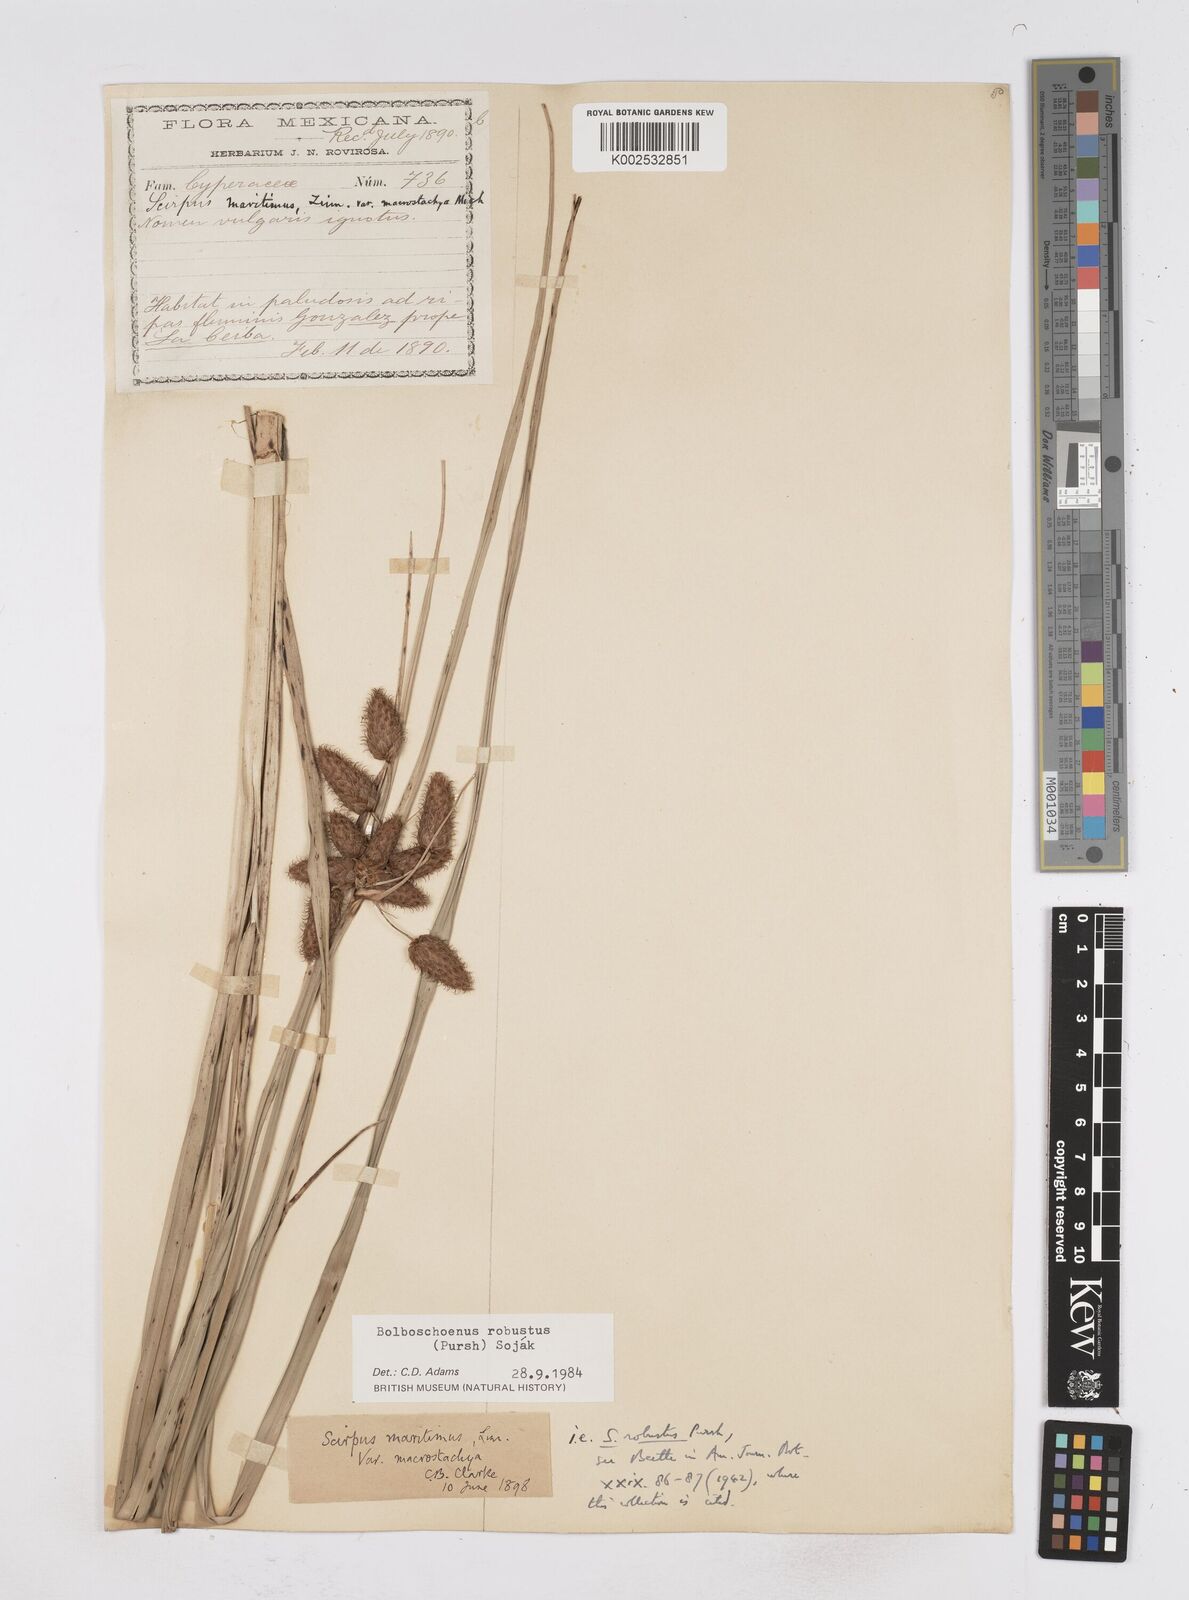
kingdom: Plantae
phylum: Tracheophyta
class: Liliopsida
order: Poales
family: Cyperaceae
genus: Bolboschoenus
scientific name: Bolboschoenus robustus
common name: Seacoast bulrush
